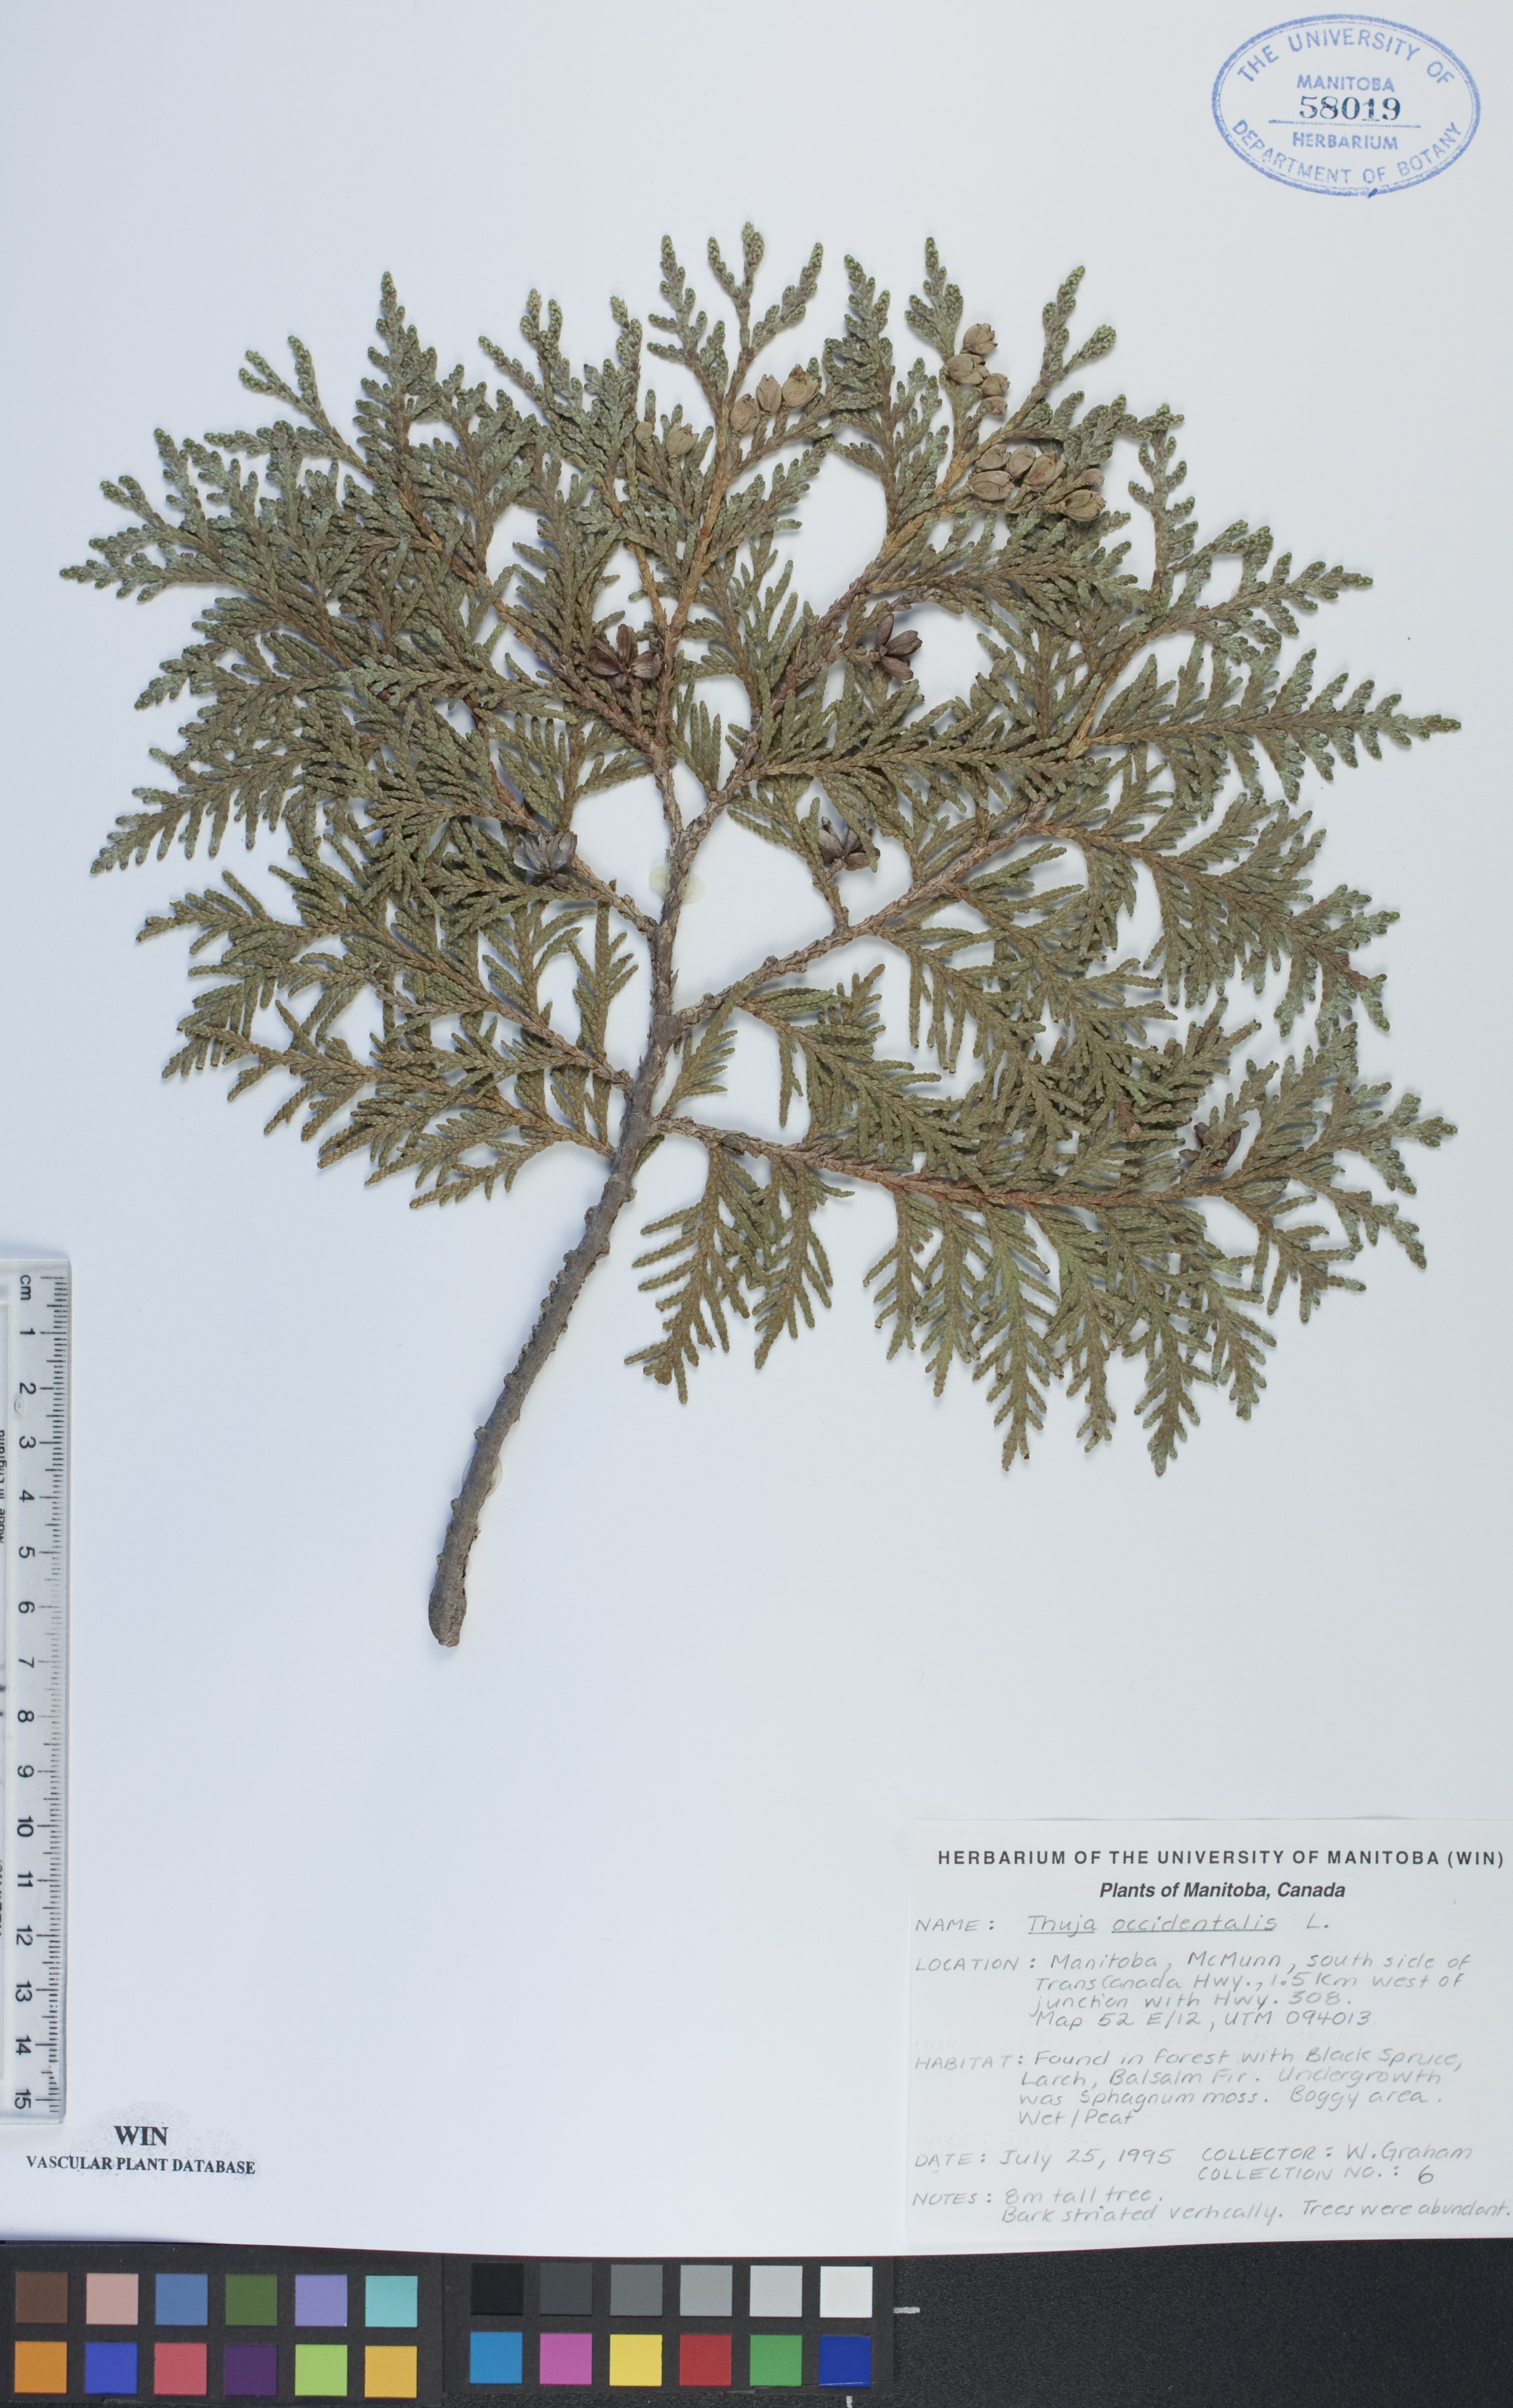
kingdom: Plantae
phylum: Tracheophyta
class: Pinopsida
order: Pinales
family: Cupressaceae
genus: Thuja
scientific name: Thuja occidentalis
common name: Northern white-cedar
